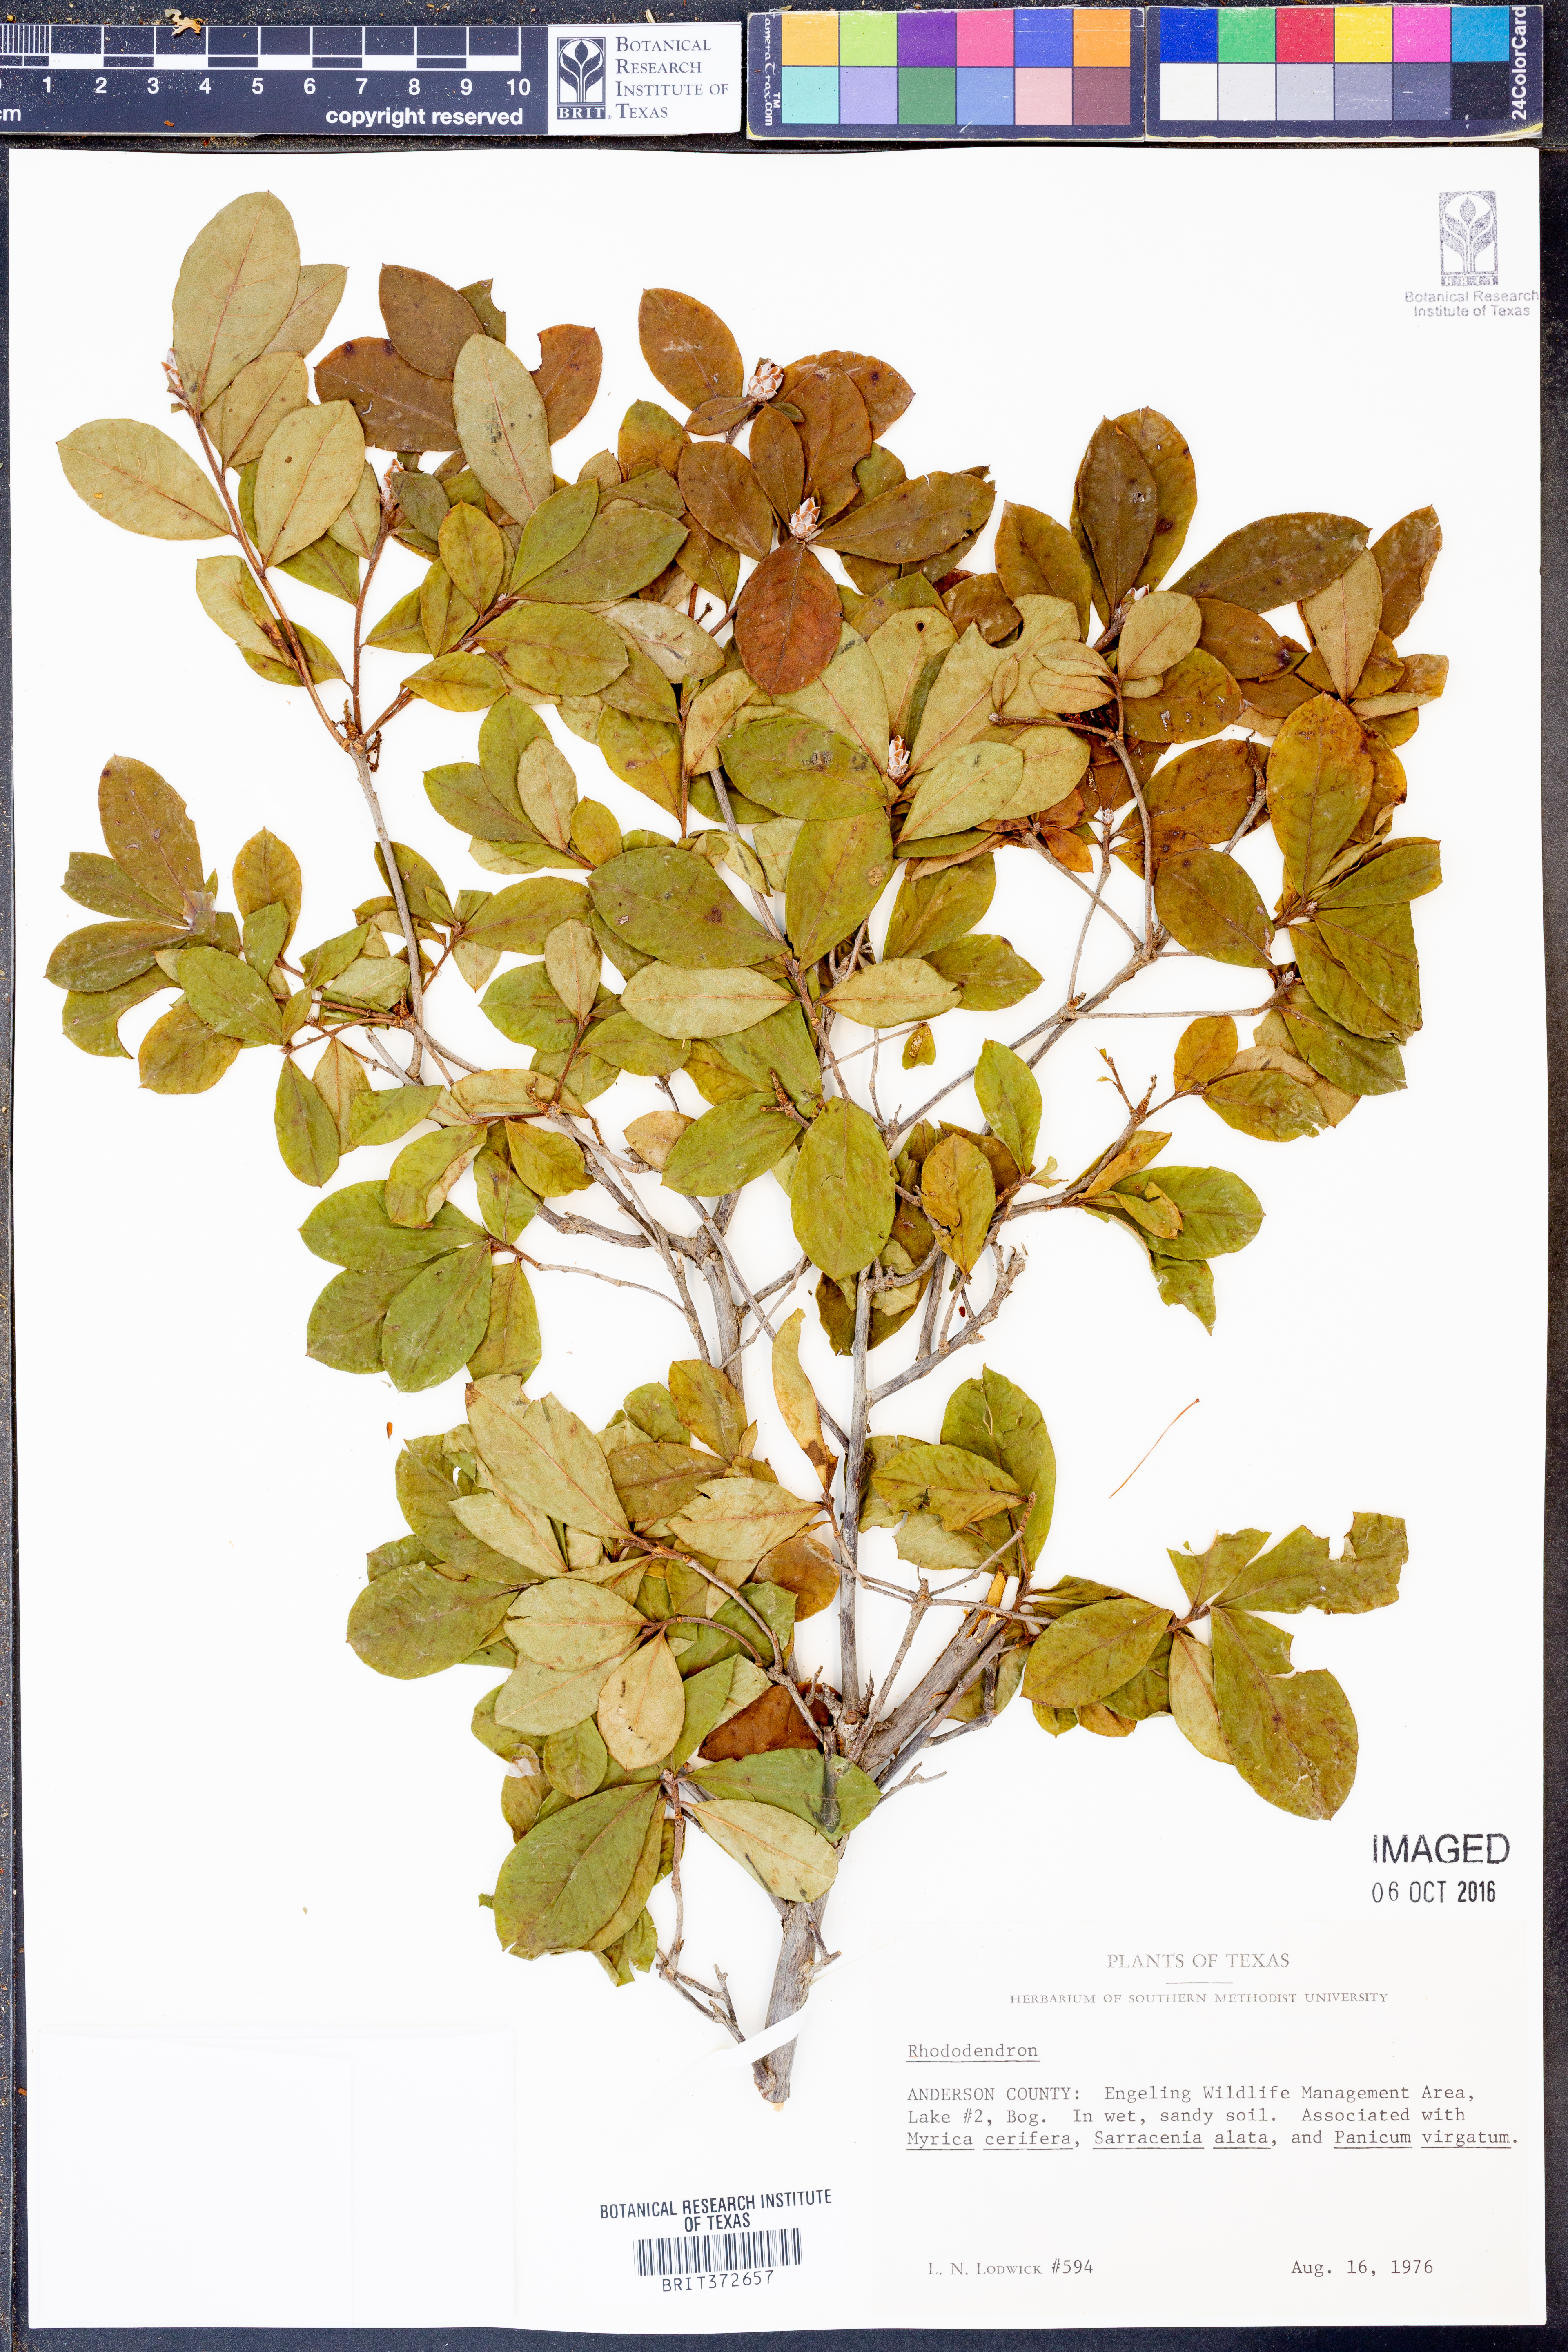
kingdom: Plantae
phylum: Tracheophyta
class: Magnoliopsida
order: Ericales
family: Ericaceae
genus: Rhododendron
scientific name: Rhododendron
